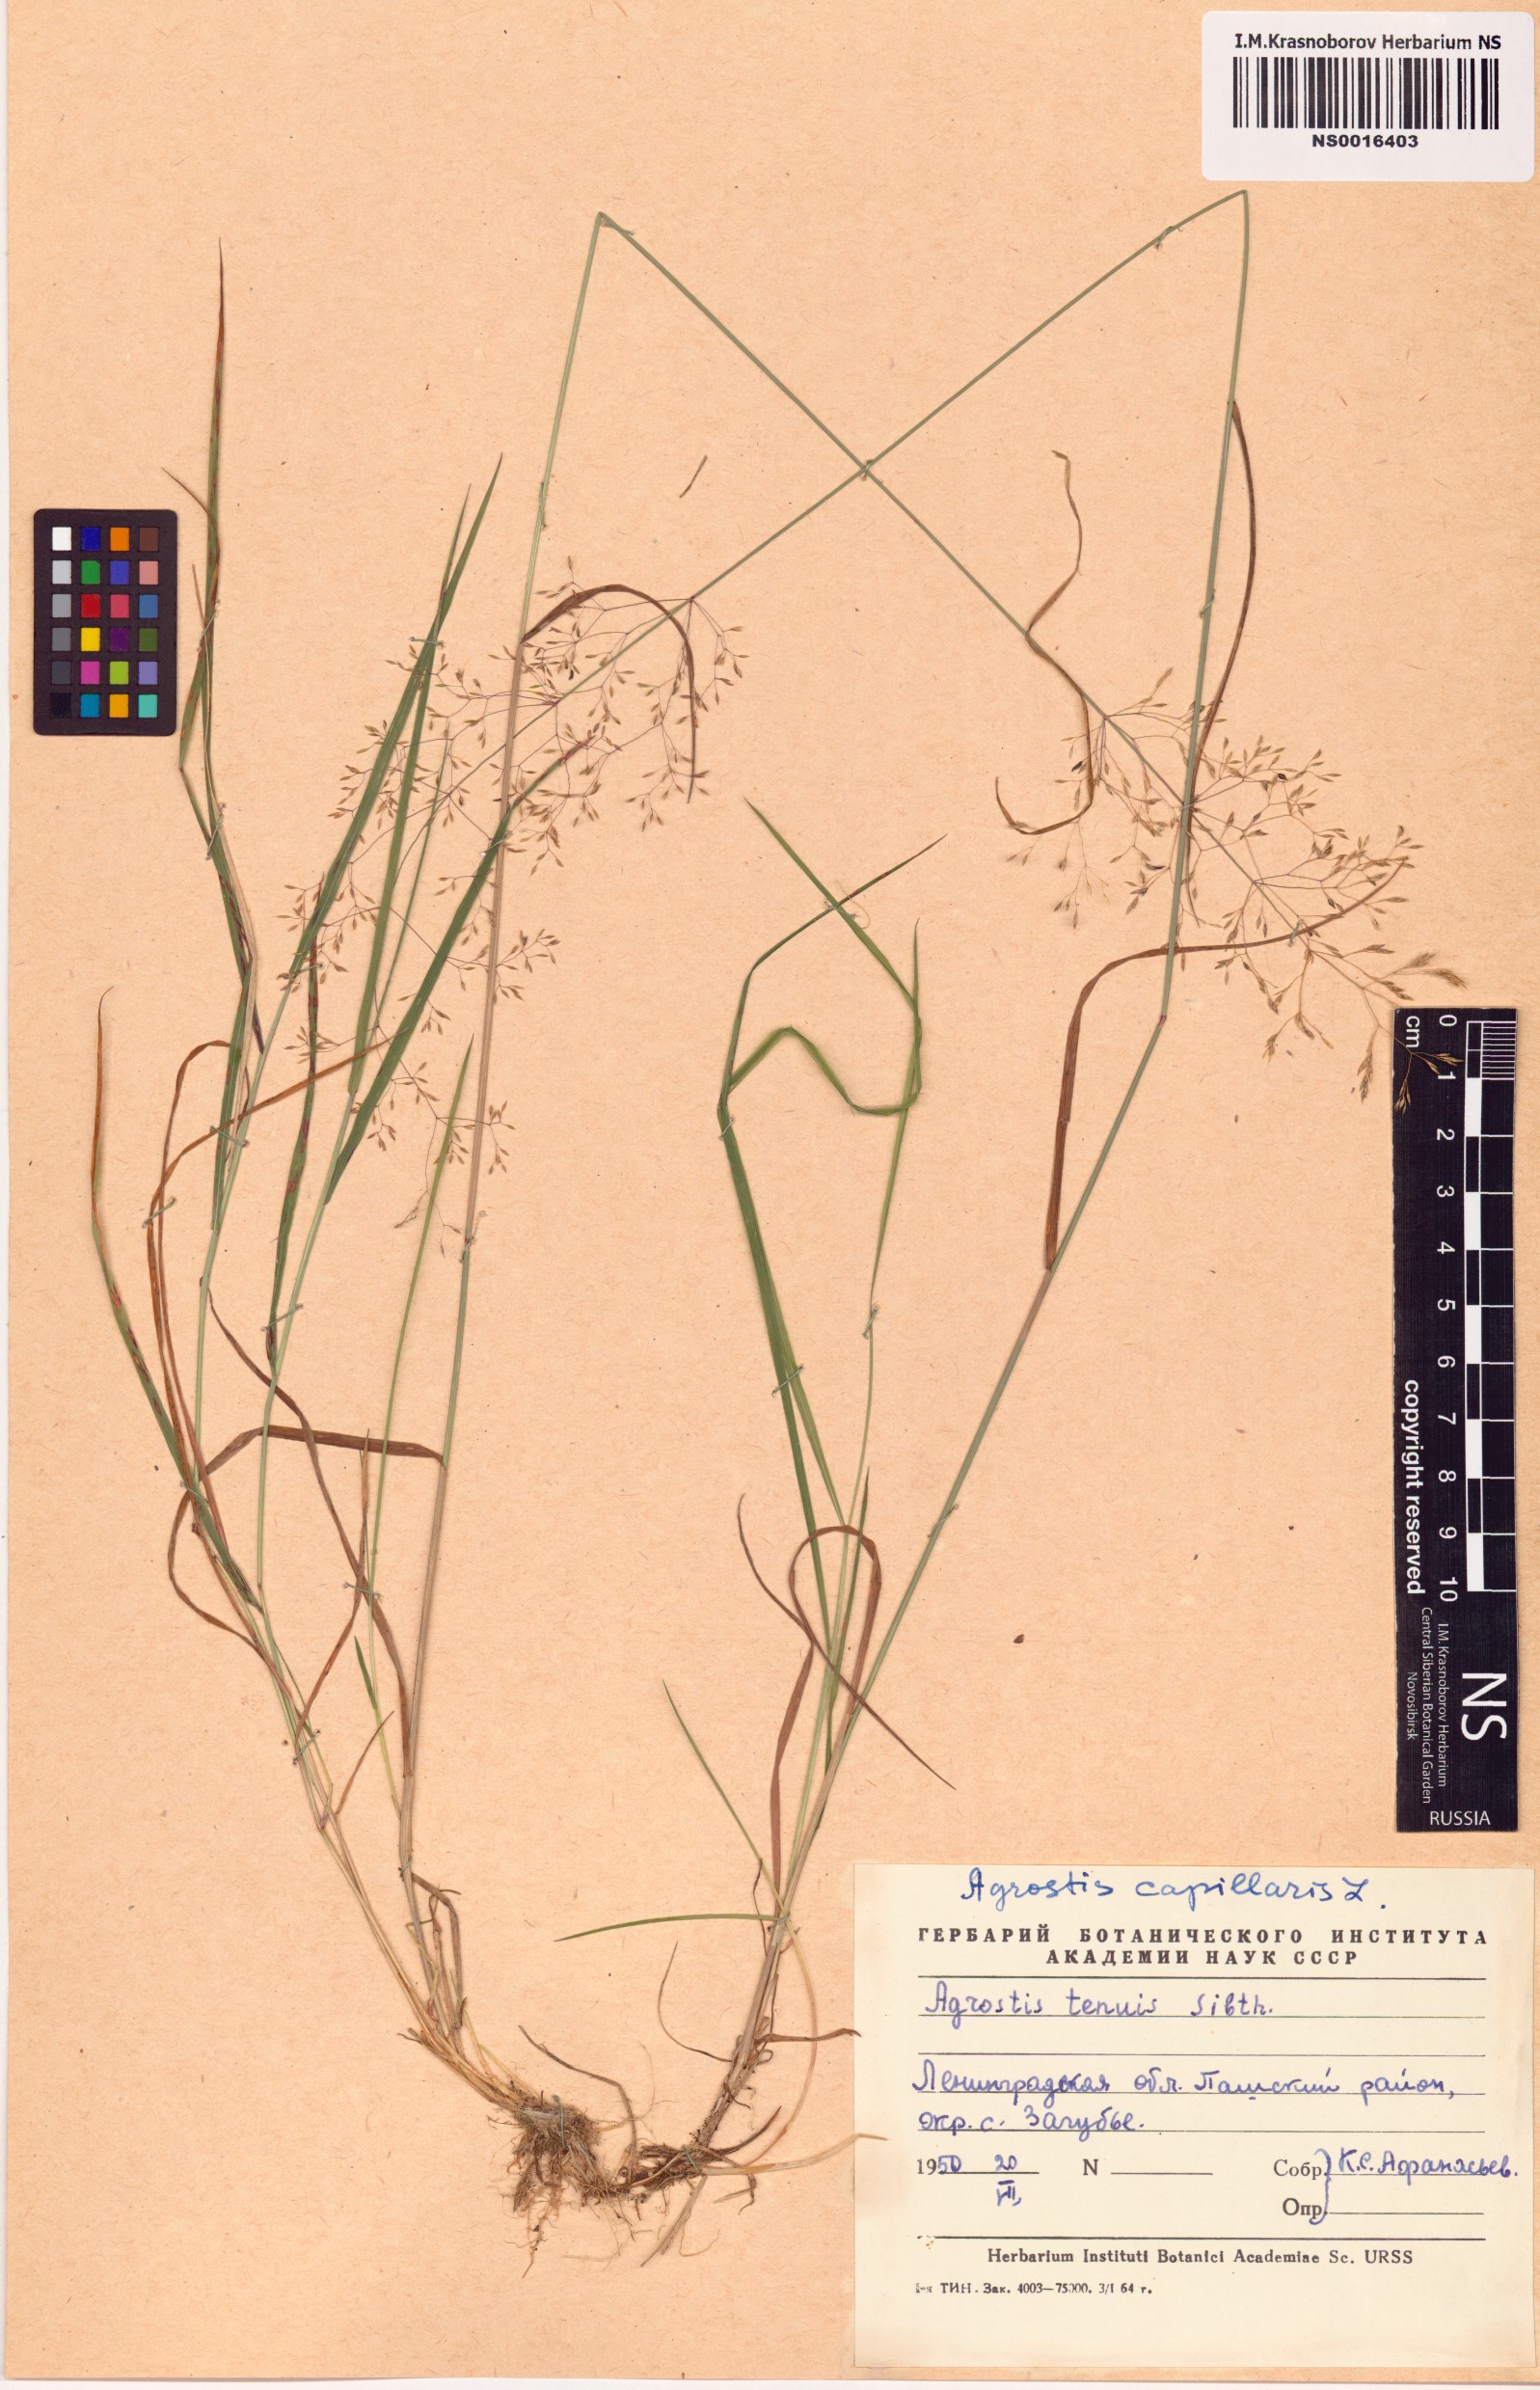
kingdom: Plantae
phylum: Tracheophyta
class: Liliopsida
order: Poales
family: Poaceae
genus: Agrostis
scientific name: Agrostis capillaris
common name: Colonial bentgrass
